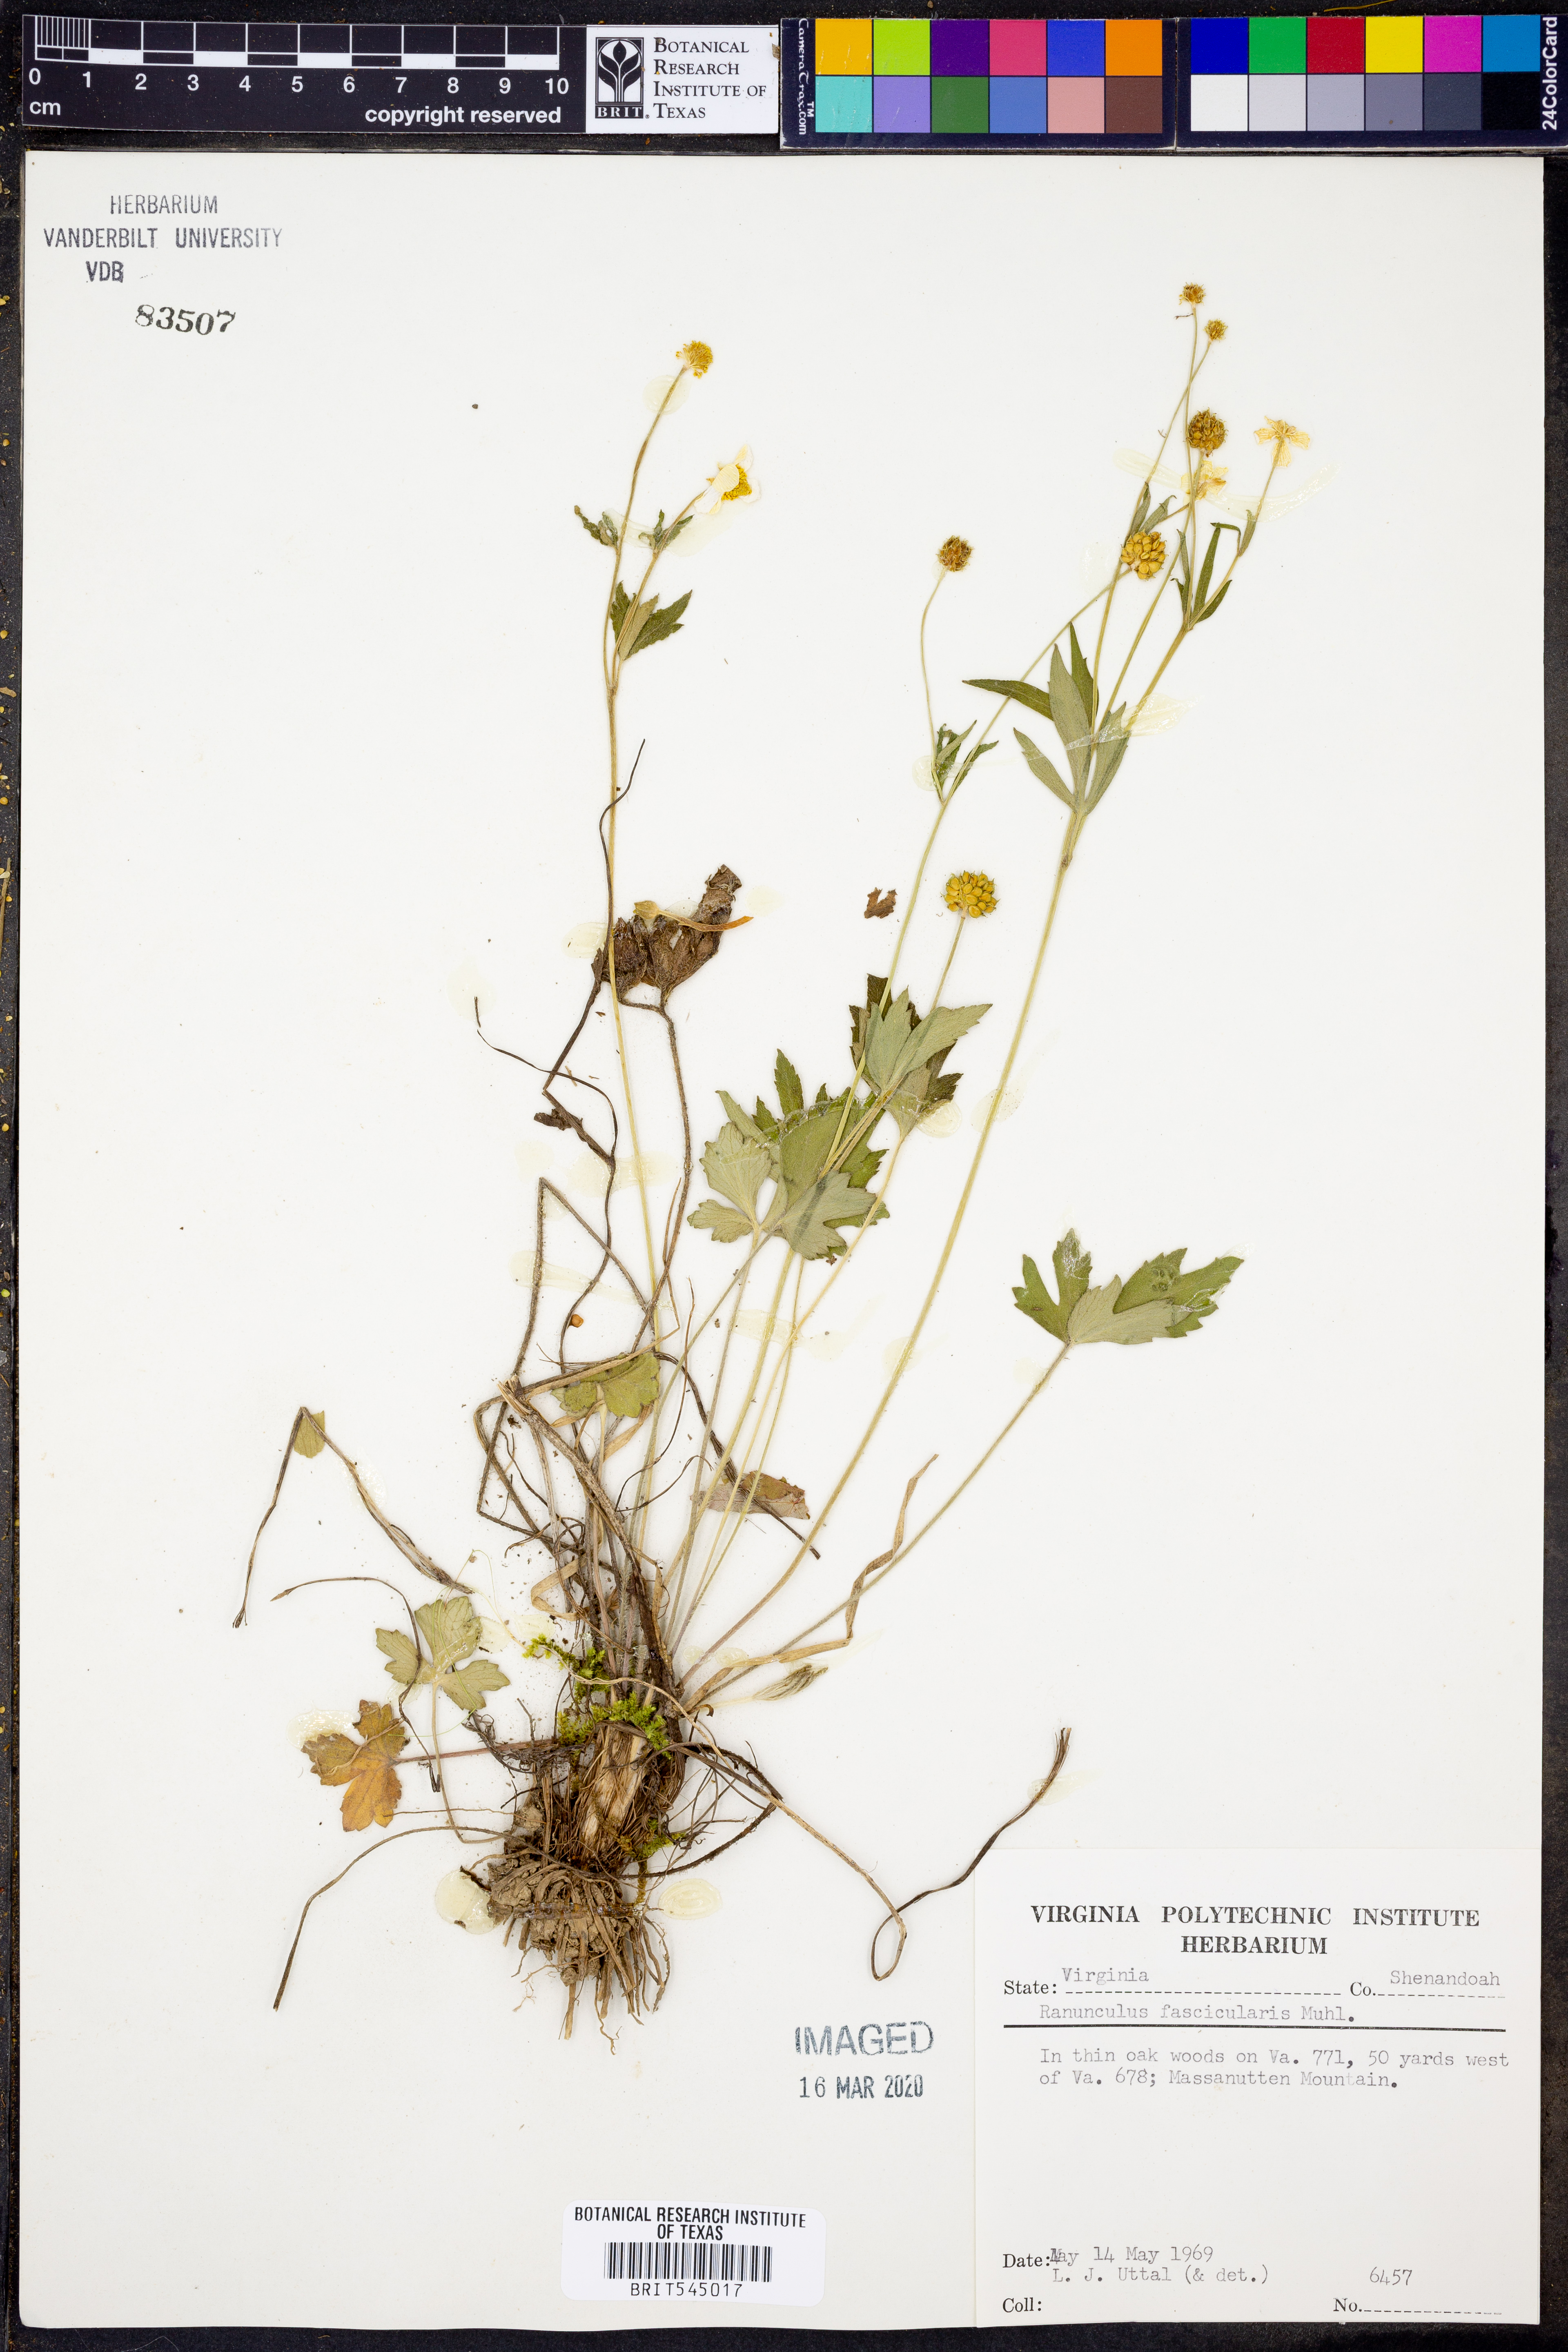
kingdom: Plantae
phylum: Tracheophyta
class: Magnoliopsida
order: Ranunculales
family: Ranunculaceae
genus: Ranunculus
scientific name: Ranunculus fascicularis
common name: Early buttercup
